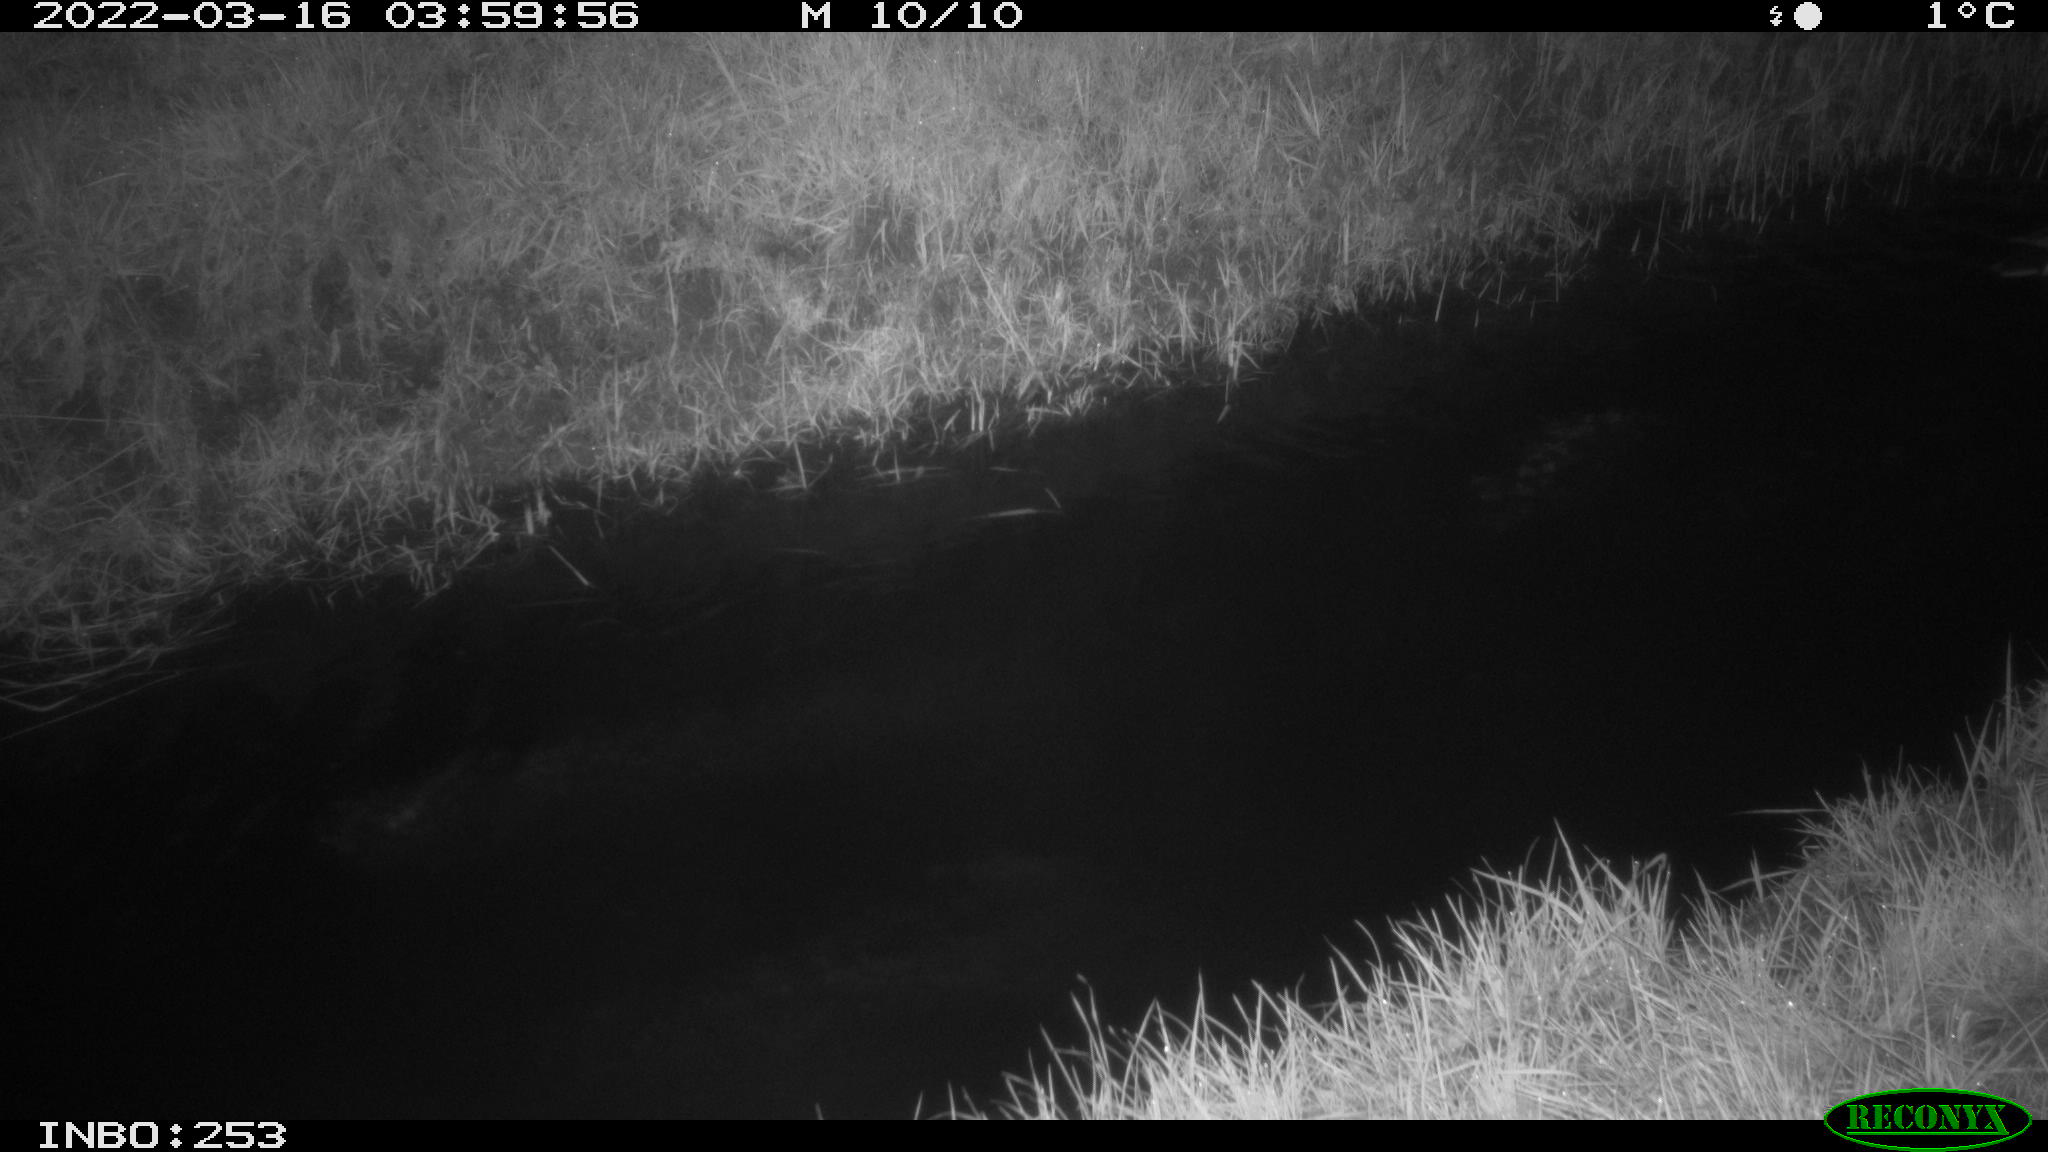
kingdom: Animalia
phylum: Chordata
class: Aves
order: Anseriformes
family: Anatidae
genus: Anas
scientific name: Anas platyrhynchos
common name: Mallard
